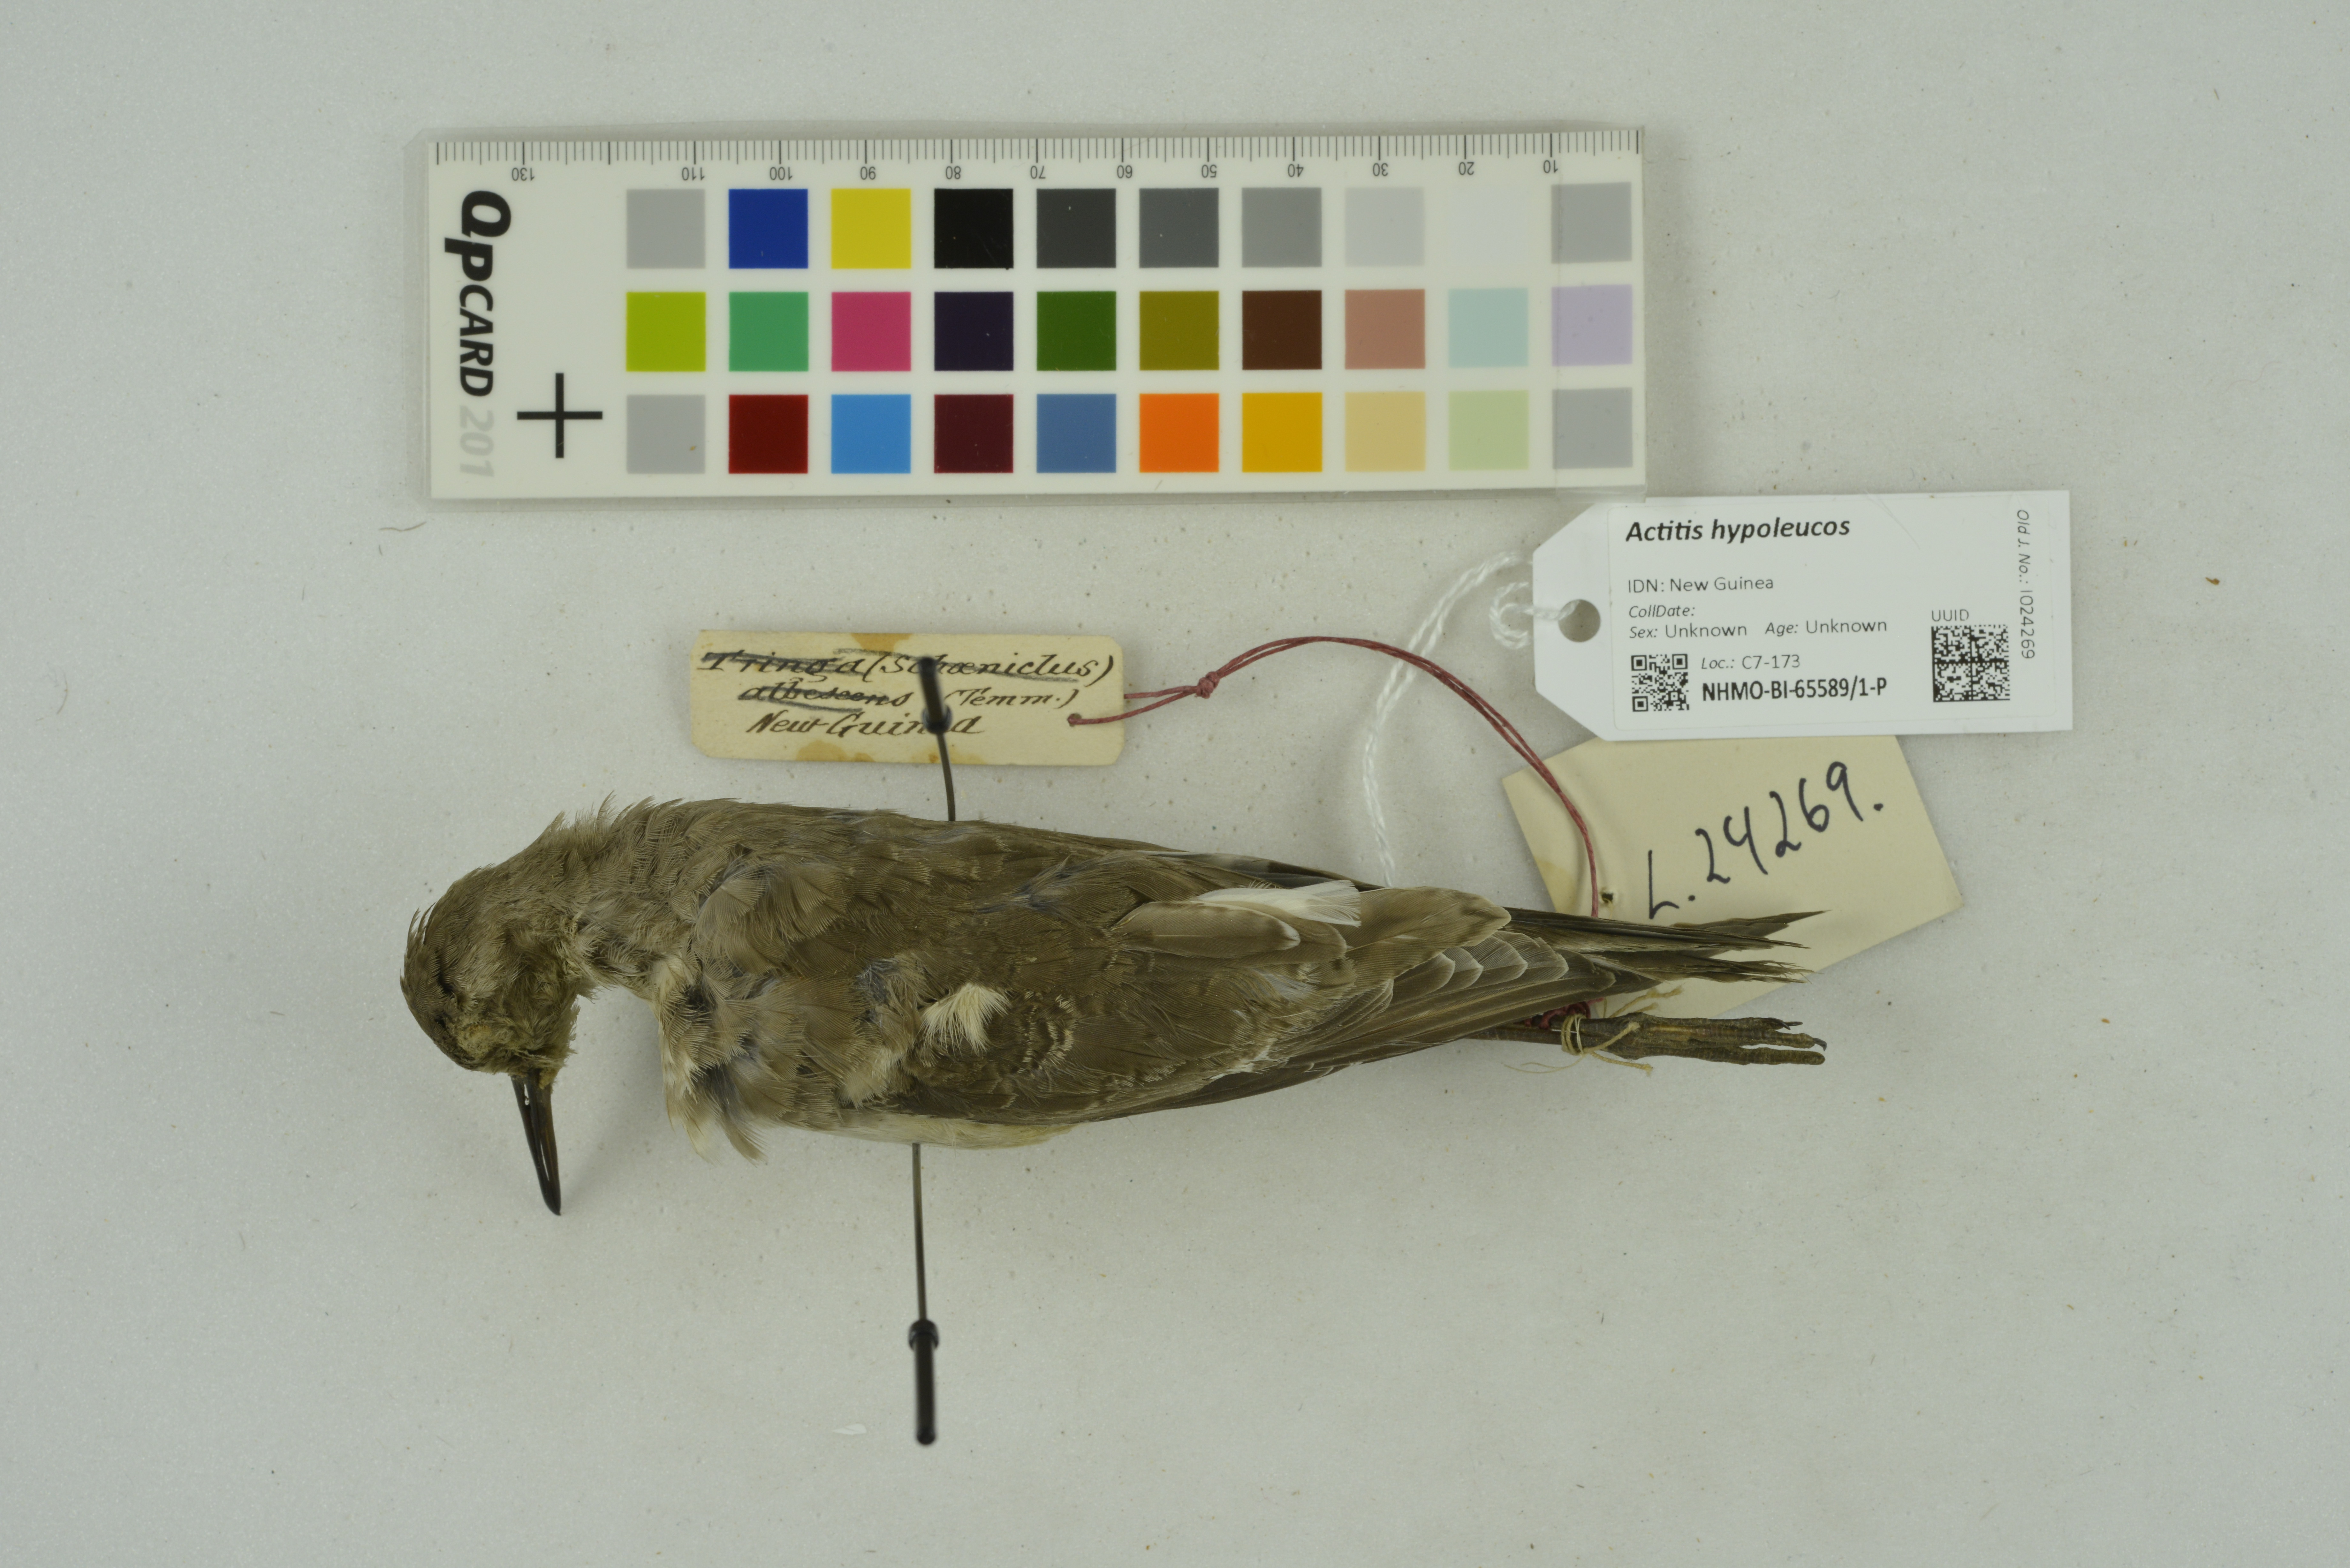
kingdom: Animalia
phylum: Chordata
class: Aves
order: Charadriiformes
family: Scolopacidae
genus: Actitis
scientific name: Actitis hypoleucos
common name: Common sandpiper
